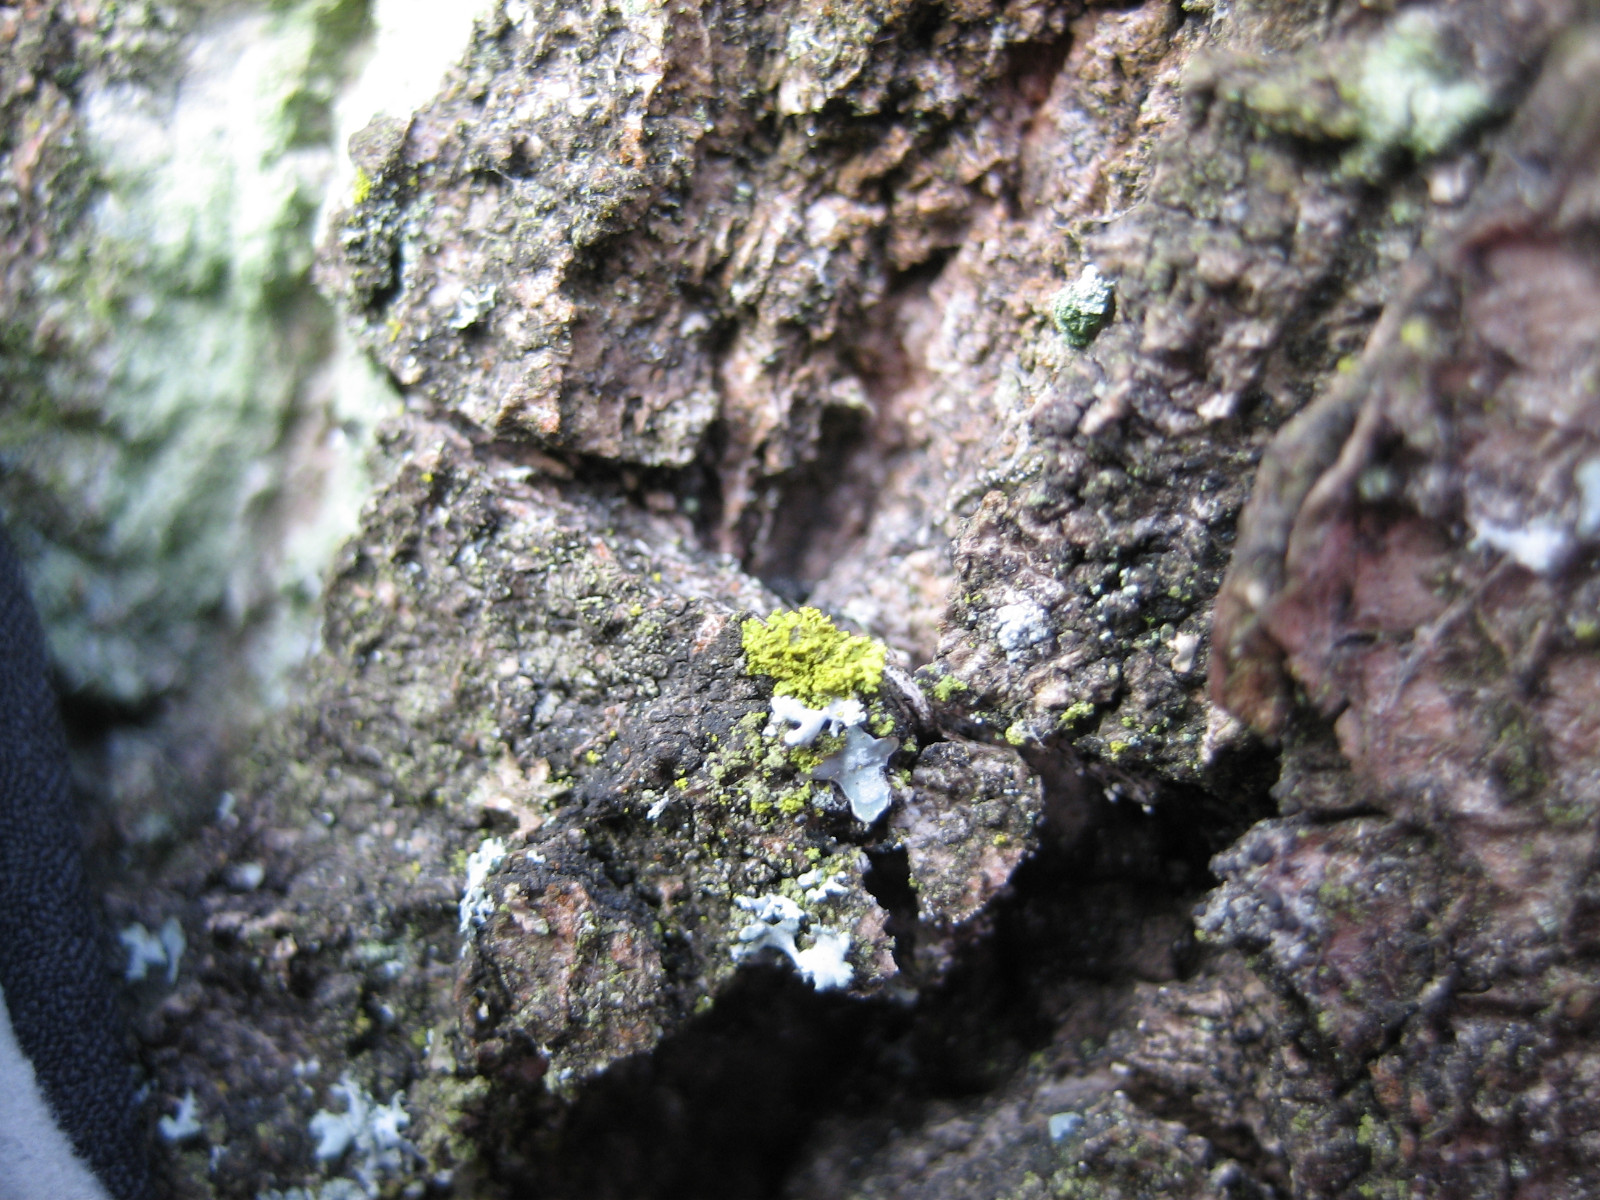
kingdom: Fungi
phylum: Ascomycota
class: Candelariomycetes
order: Candelariales
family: Candelariaceae
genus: Candelaria
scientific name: Candelaria pacifica
